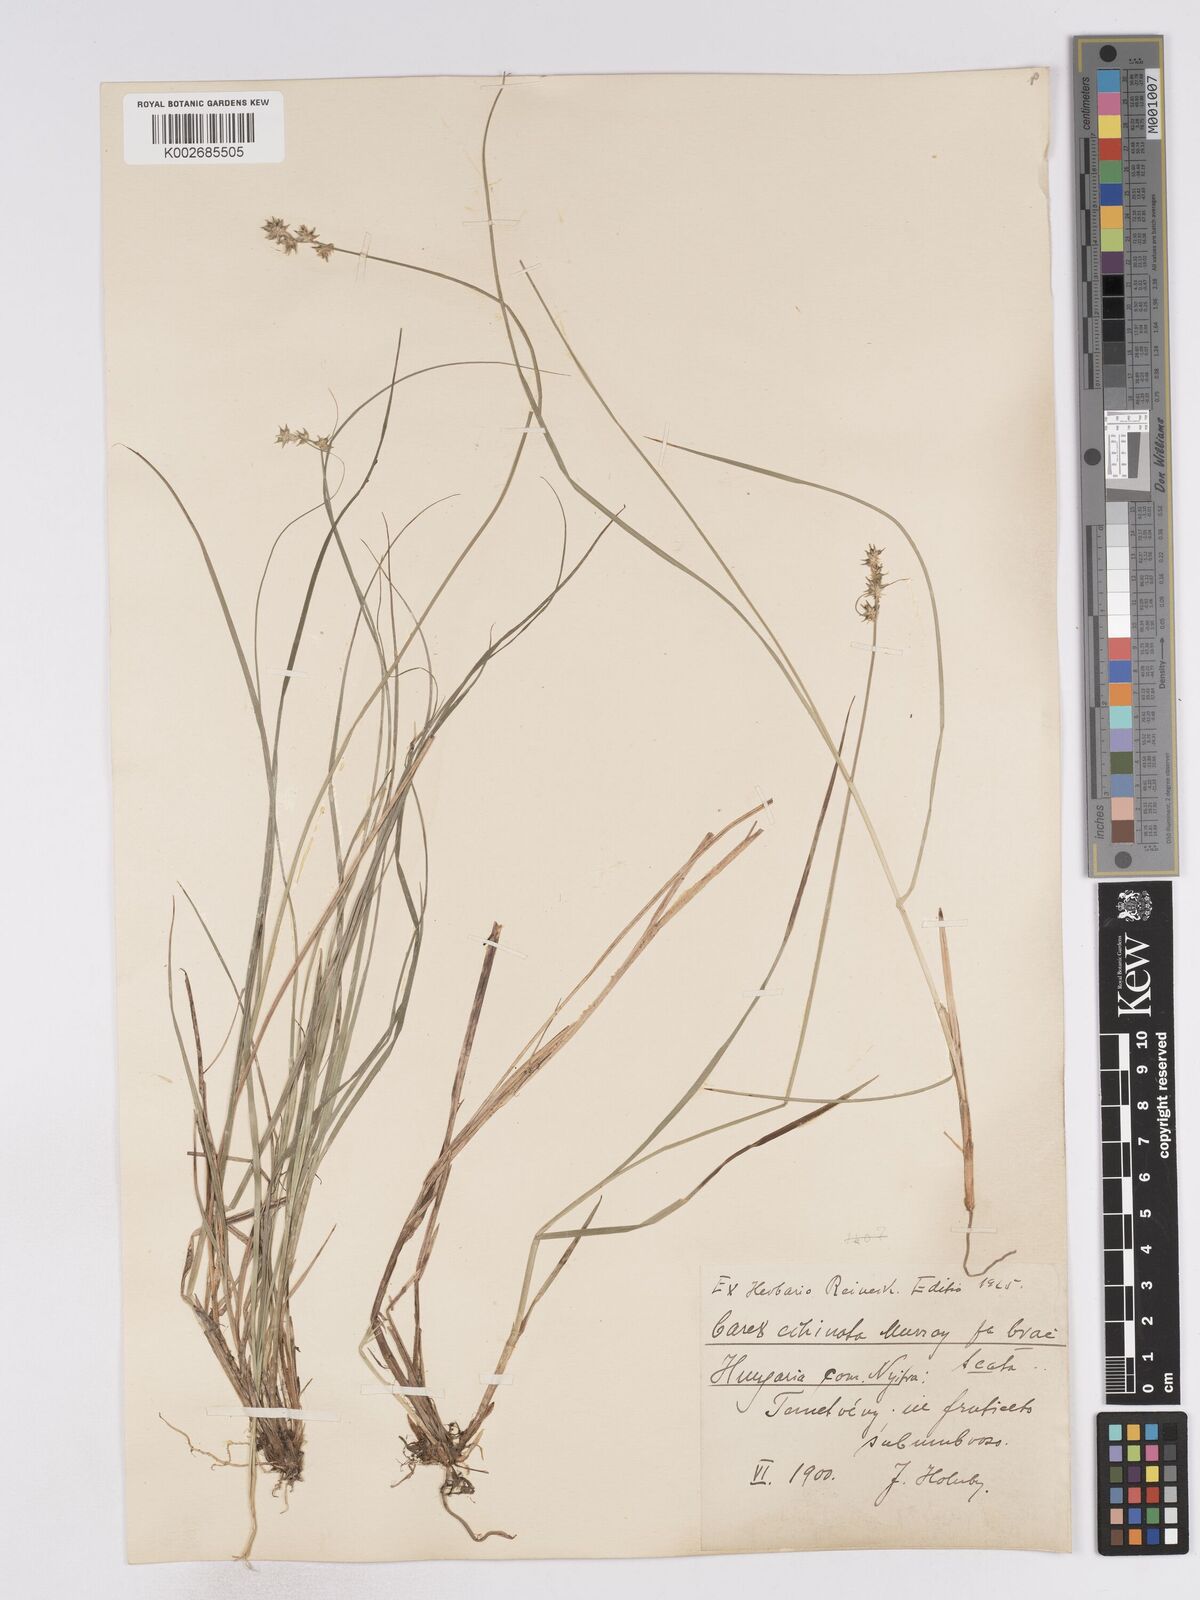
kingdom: Plantae
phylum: Tracheophyta
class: Liliopsida
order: Poales
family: Cyperaceae
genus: Carex
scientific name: Carex echinata
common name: Star sedge
